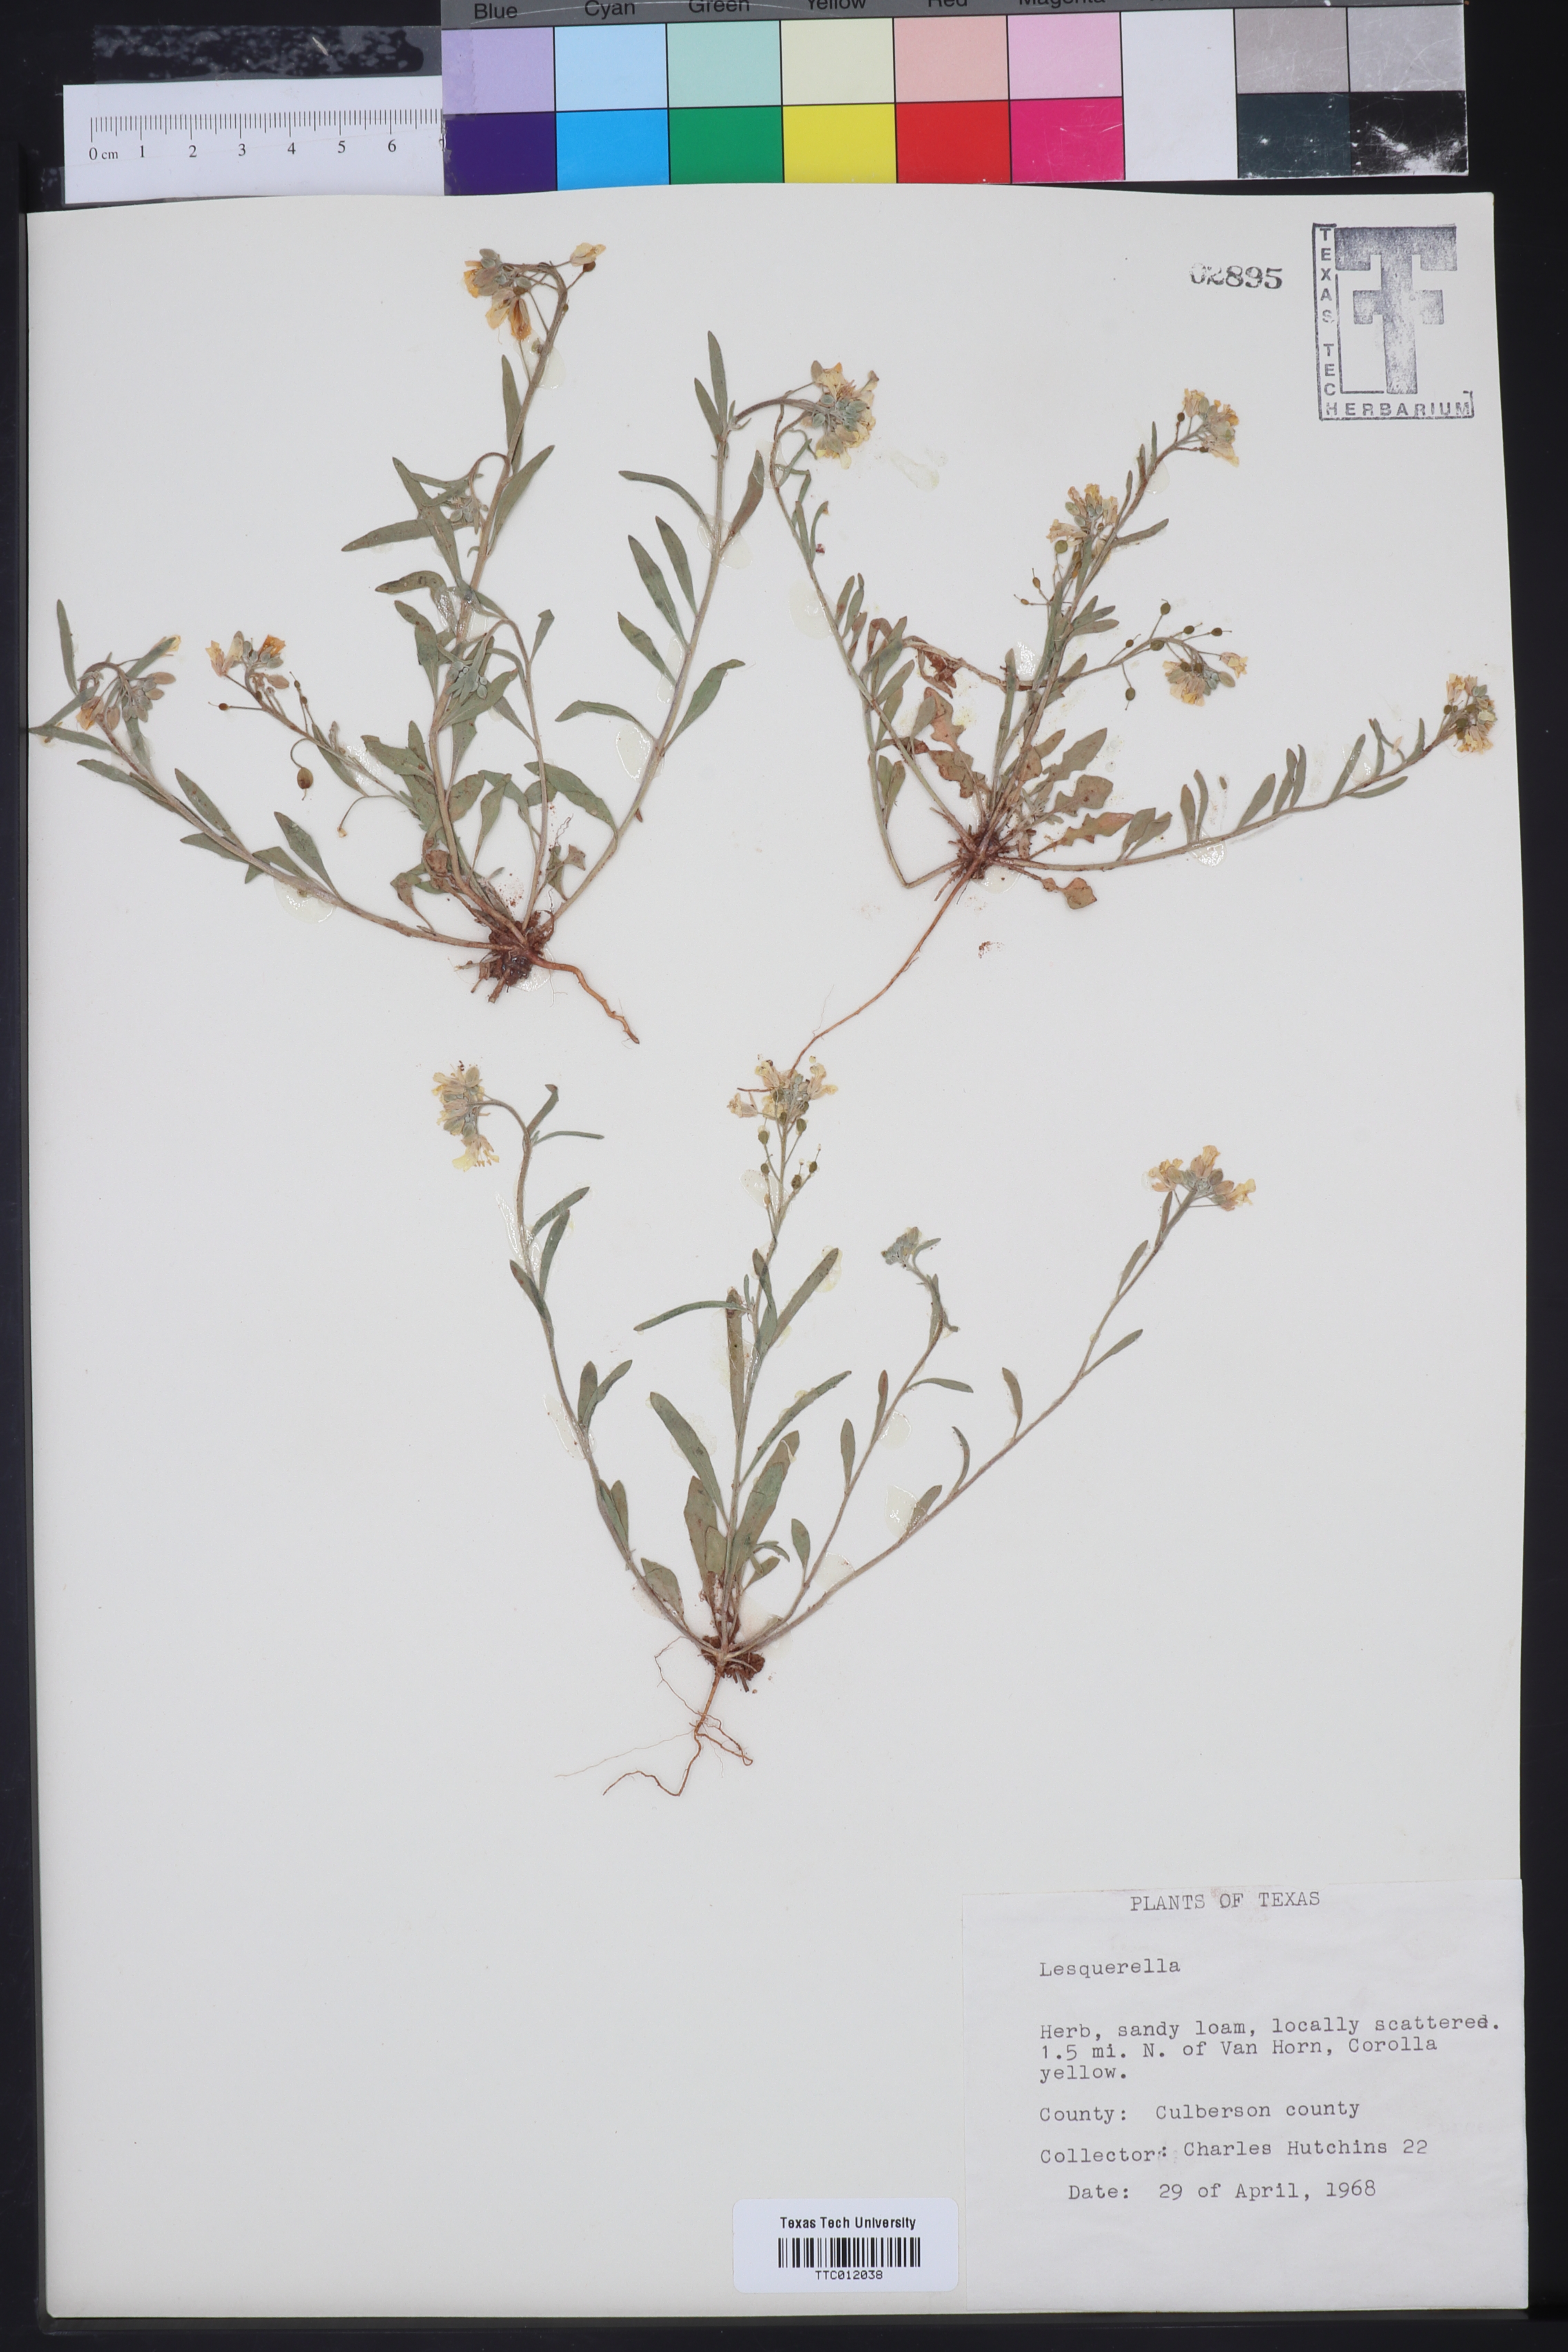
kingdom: Chromista
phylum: Cercozoa
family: Psammonobiotidae
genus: Lesquerella
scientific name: Lesquerella
